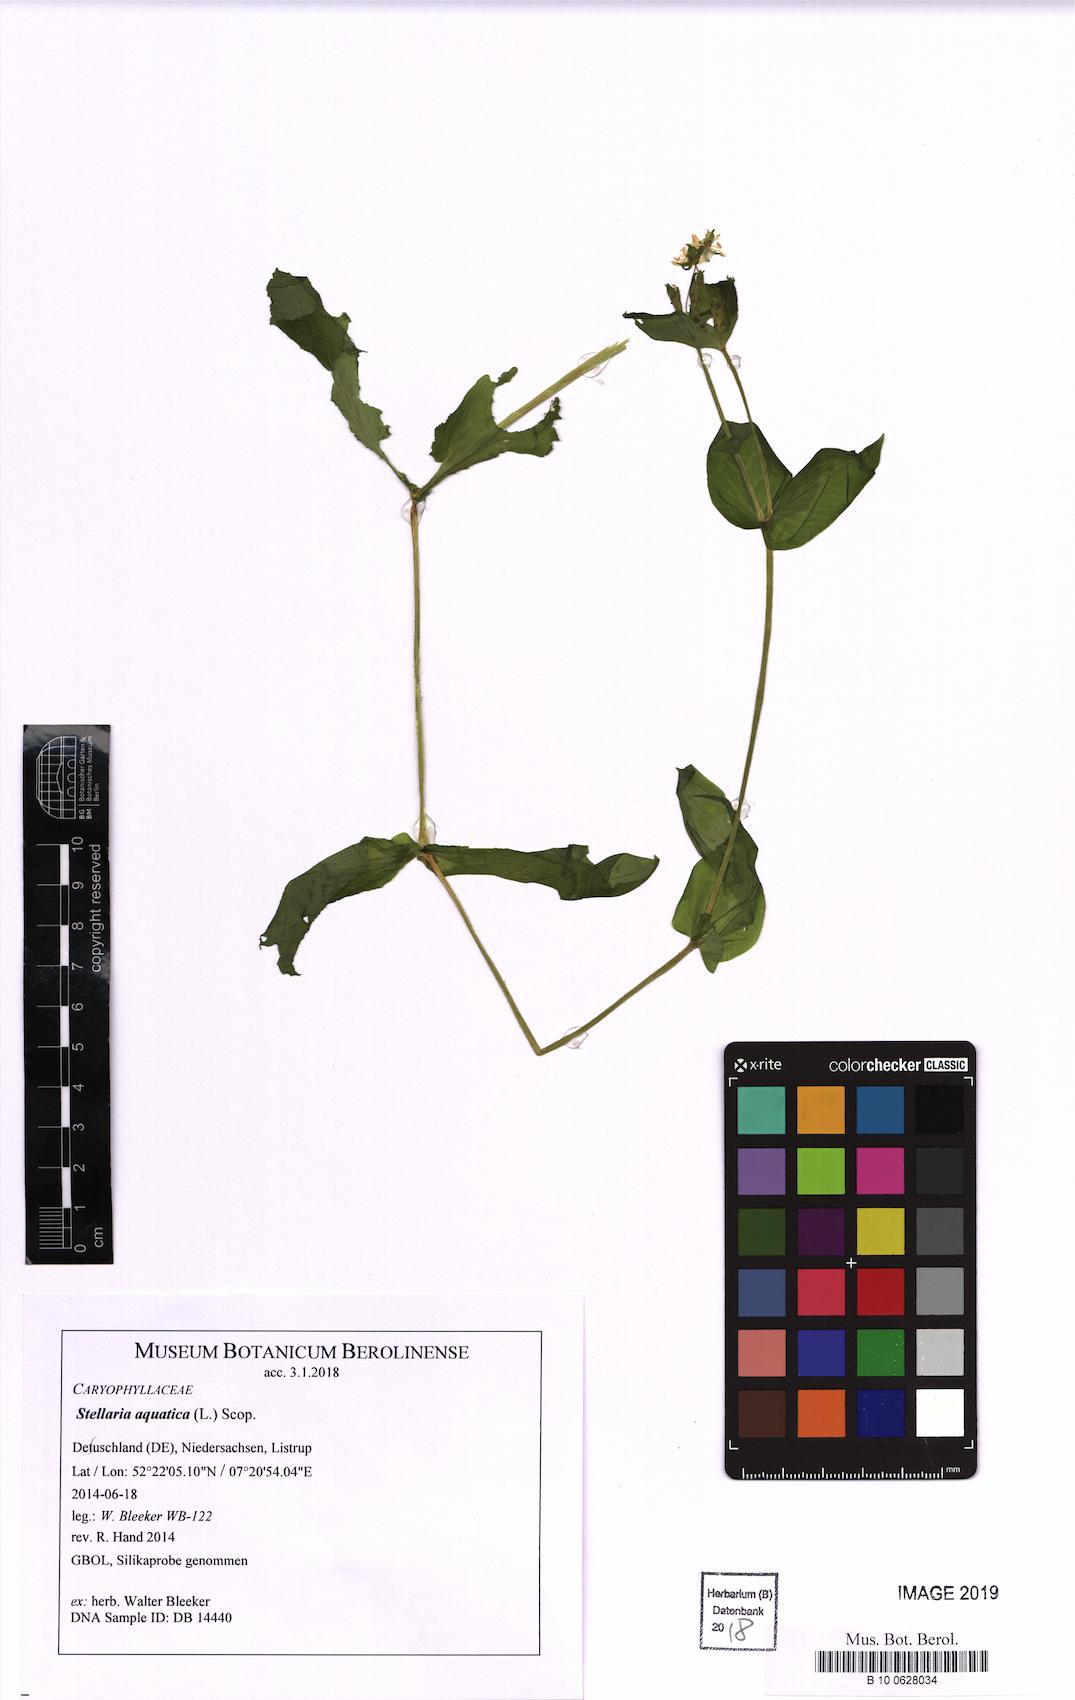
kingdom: Plantae
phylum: Tracheophyta
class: Magnoliopsida
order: Caryophyllales
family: Caryophyllaceae
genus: Stellaria
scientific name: Stellaria aquatica
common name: Water chickweed
